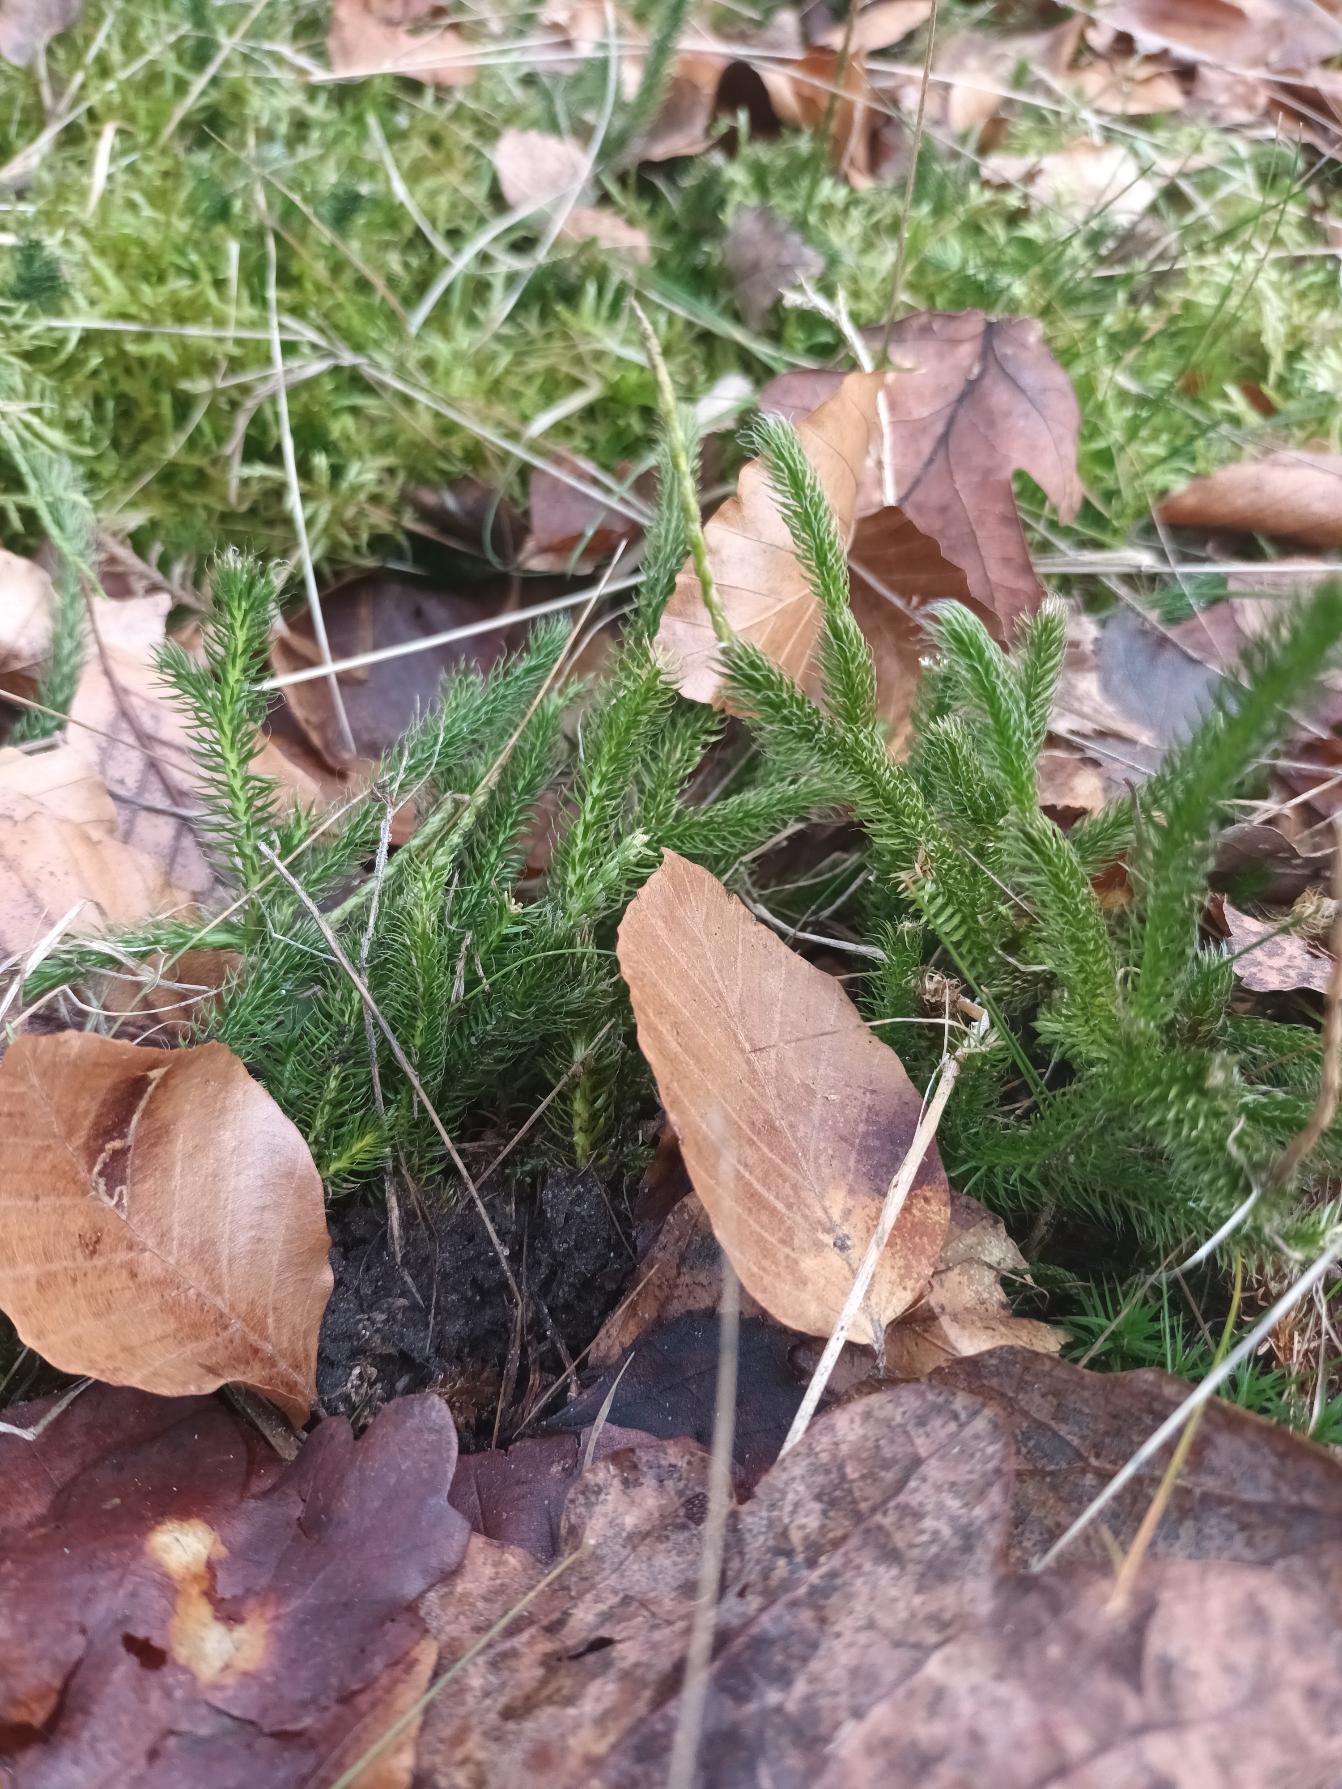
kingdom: Plantae
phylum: Tracheophyta
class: Lycopodiopsida
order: Lycopodiales
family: Lycopodiaceae
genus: Lycopodium
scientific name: Lycopodium clavatum
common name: Almindelig ulvefod
